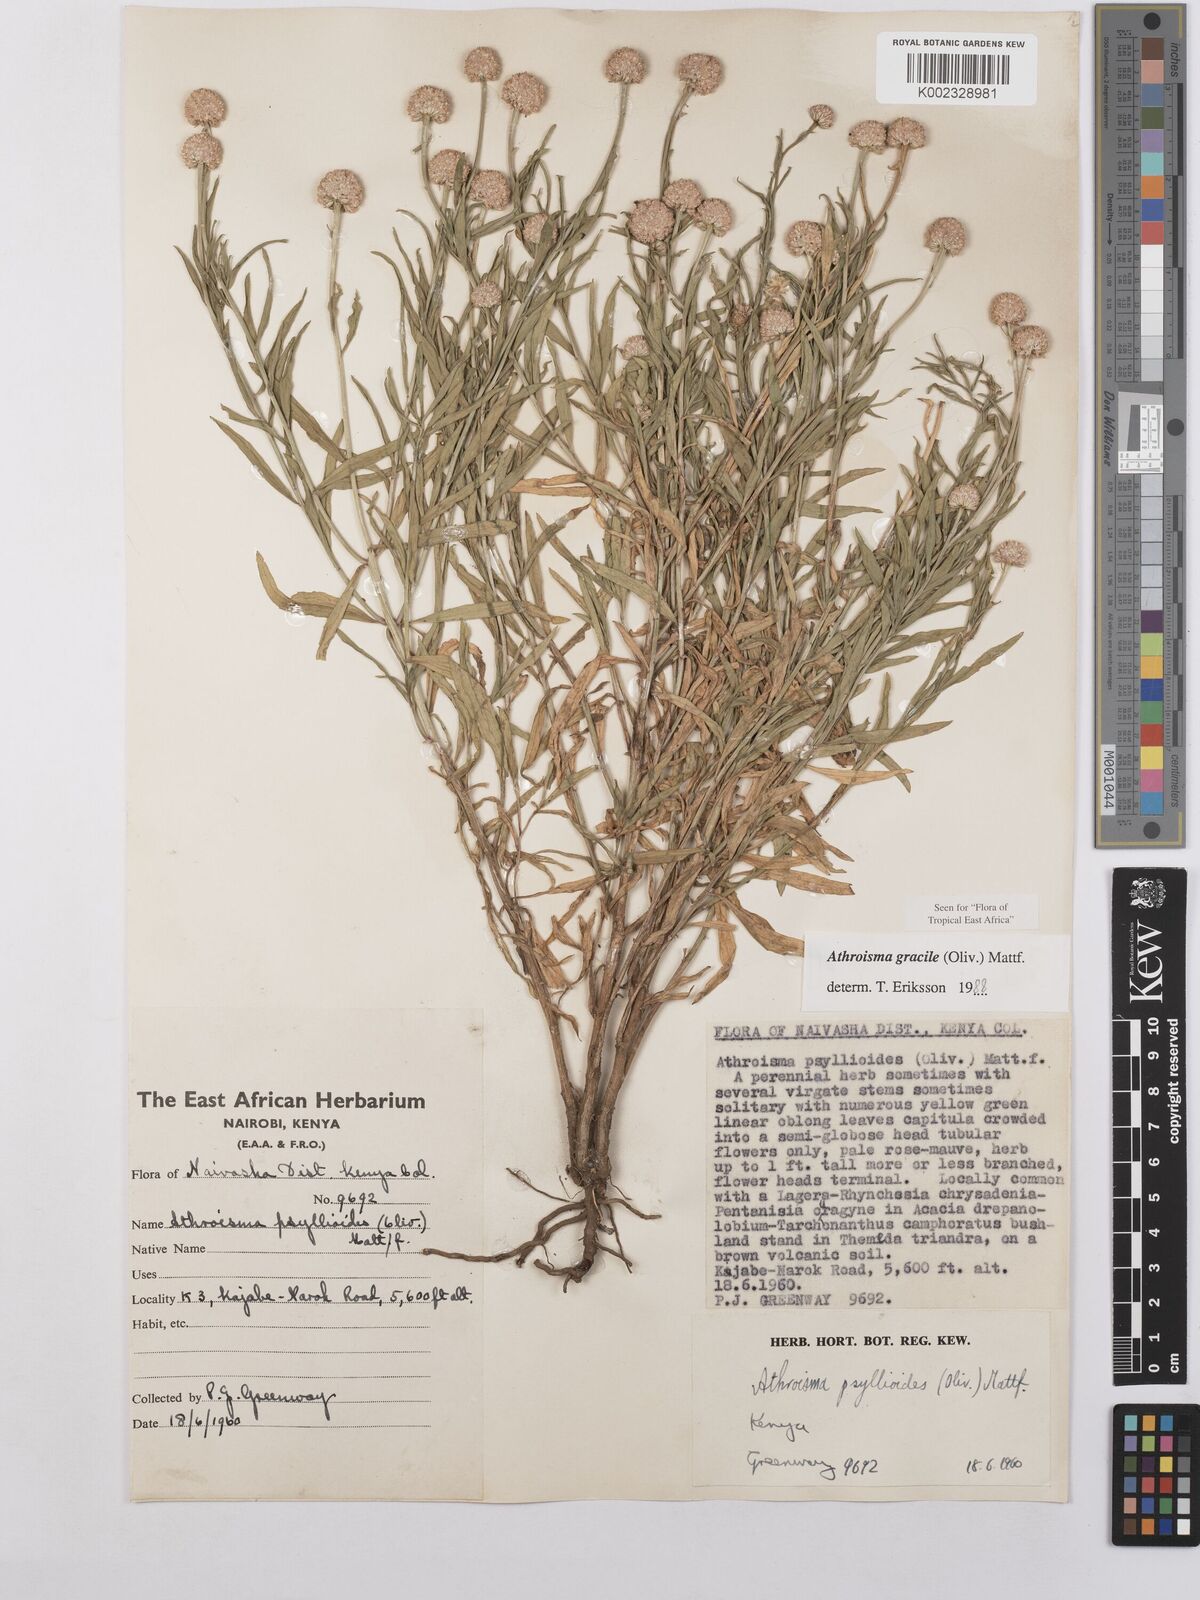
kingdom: Plantae
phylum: Tracheophyta
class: Magnoliopsida
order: Asterales
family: Asteraceae
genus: Athroisma
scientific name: Athroisma gracile
